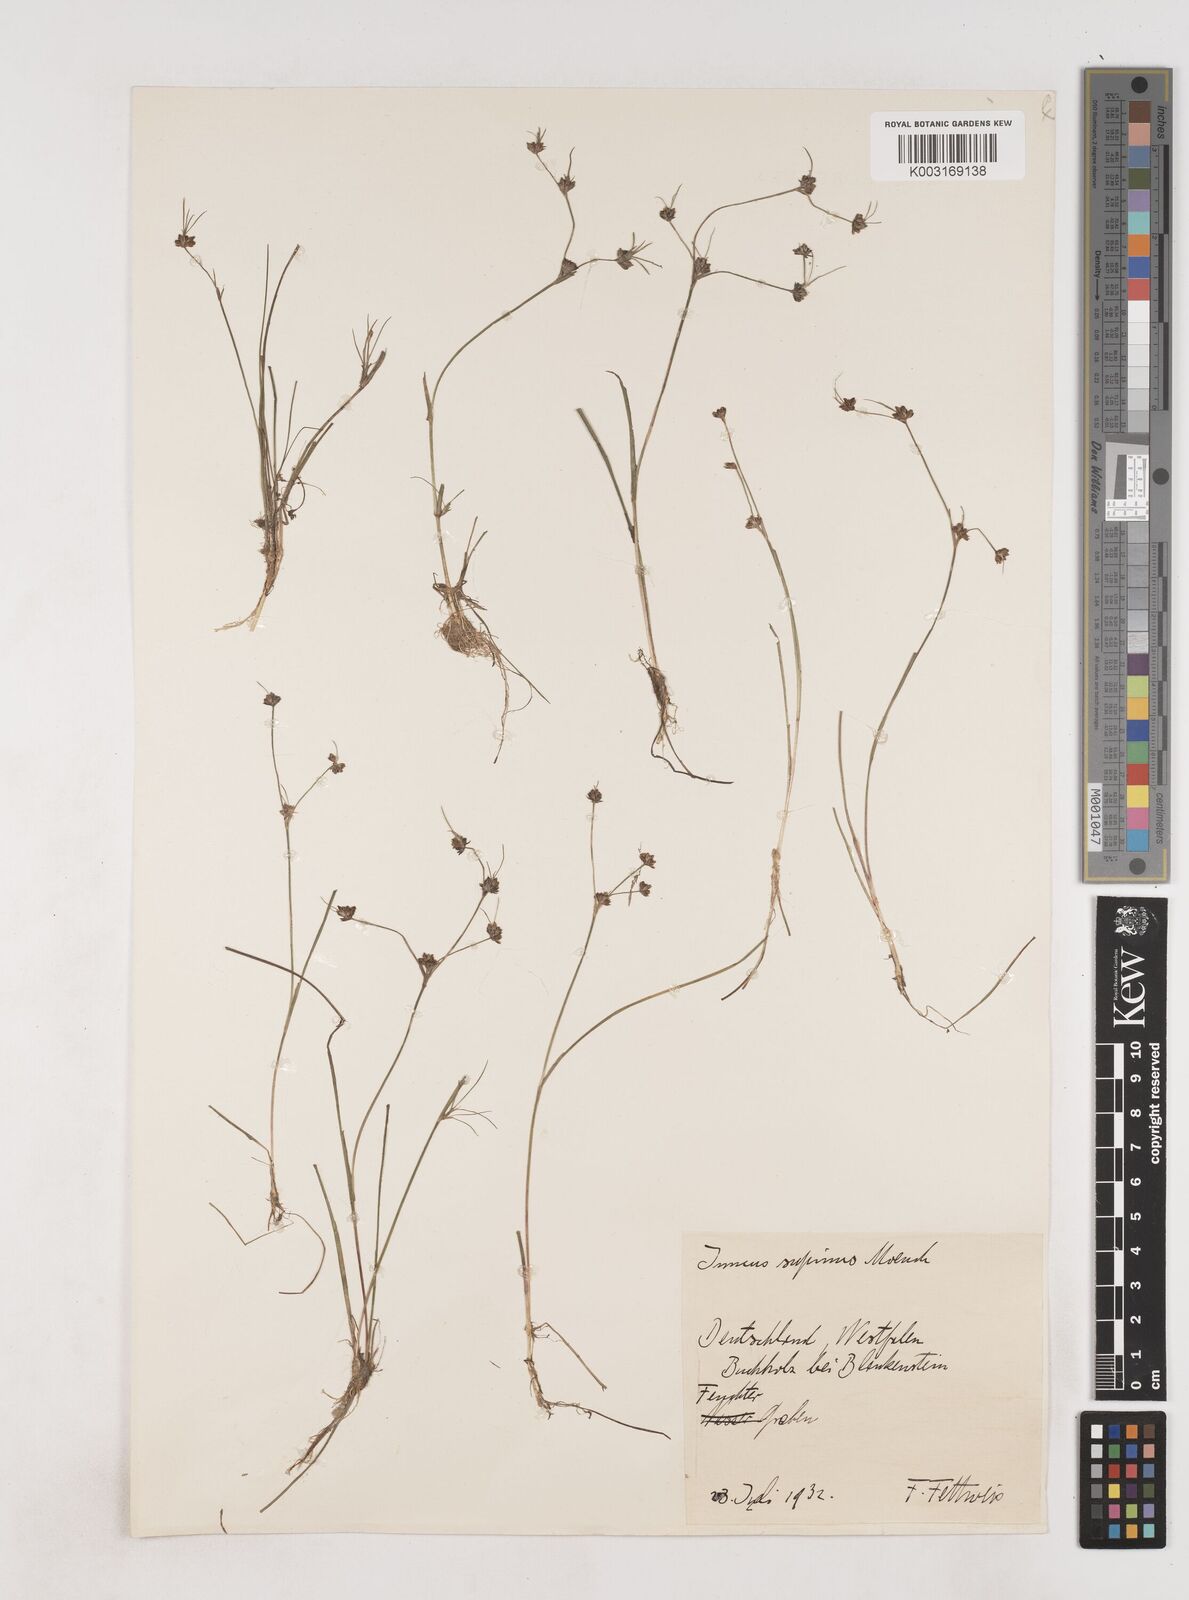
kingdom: Plantae
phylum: Tracheophyta
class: Liliopsida
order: Poales
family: Juncaceae
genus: Juncus
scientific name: Juncus bulbosus
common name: Bulbous rush
